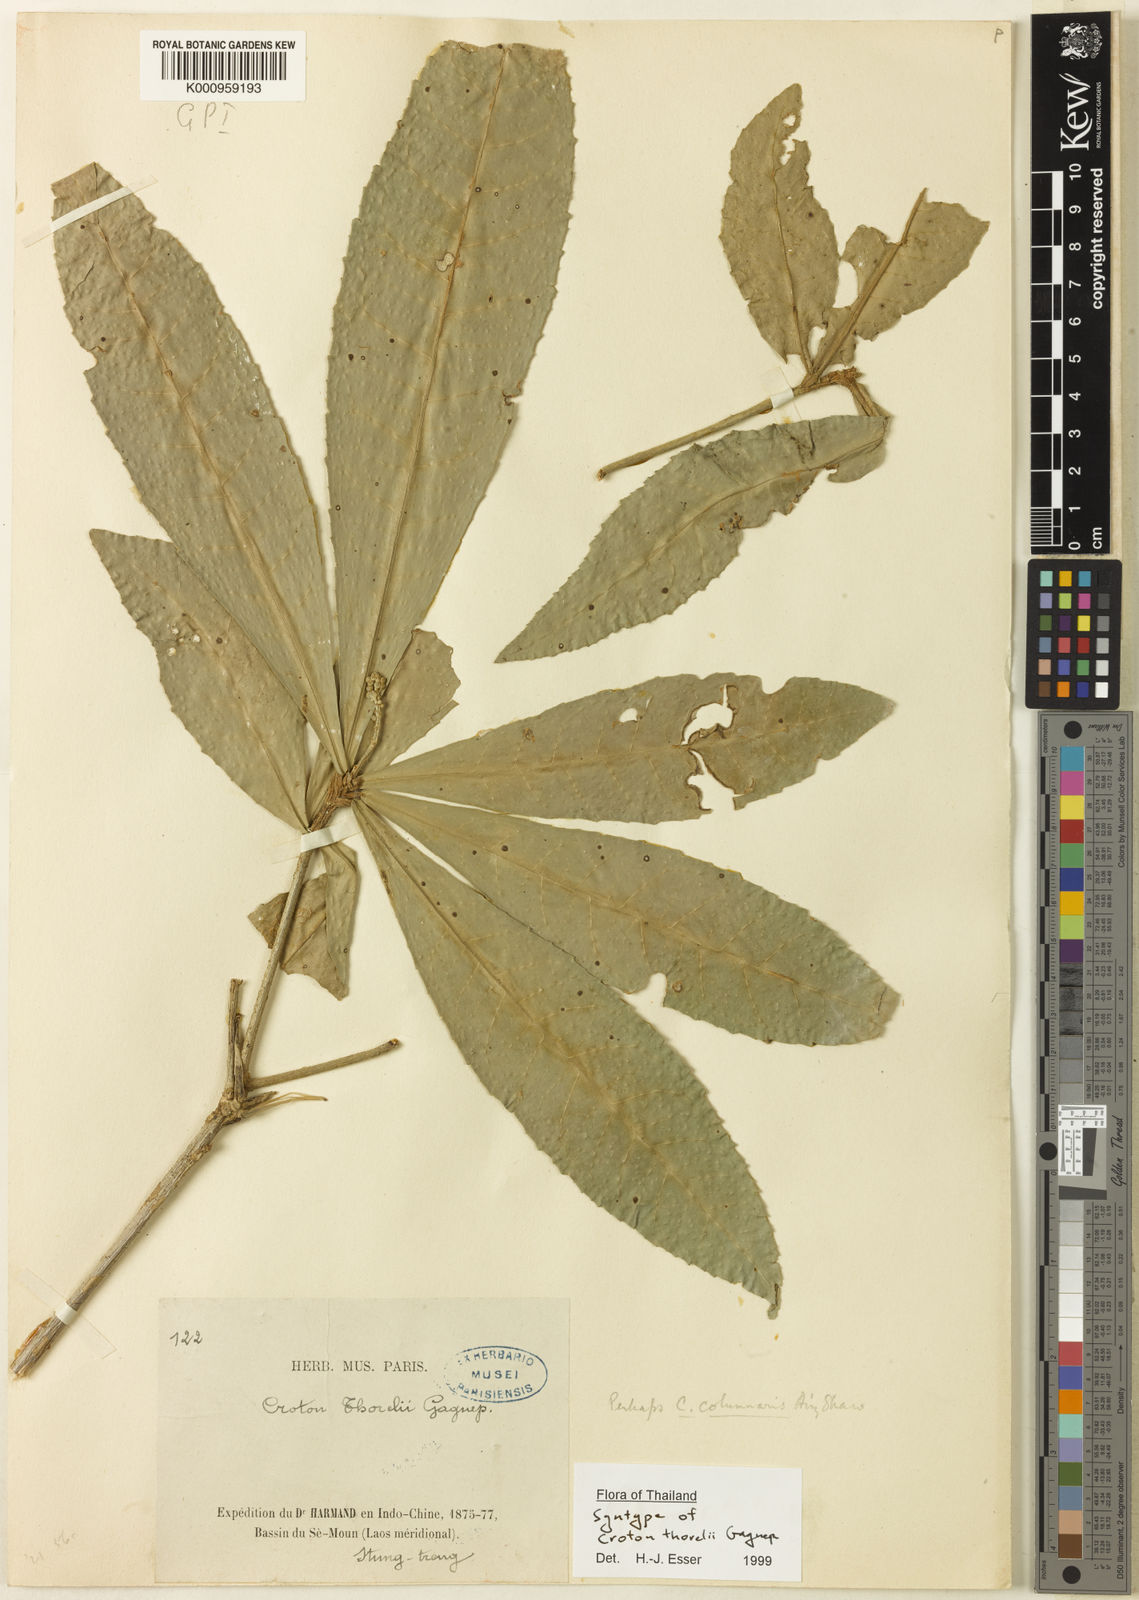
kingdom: Plantae
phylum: Tracheophyta
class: Magnoliopsida
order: Malpighiales
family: Euphorbiaceae
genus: Croton
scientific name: Croton thorelii
